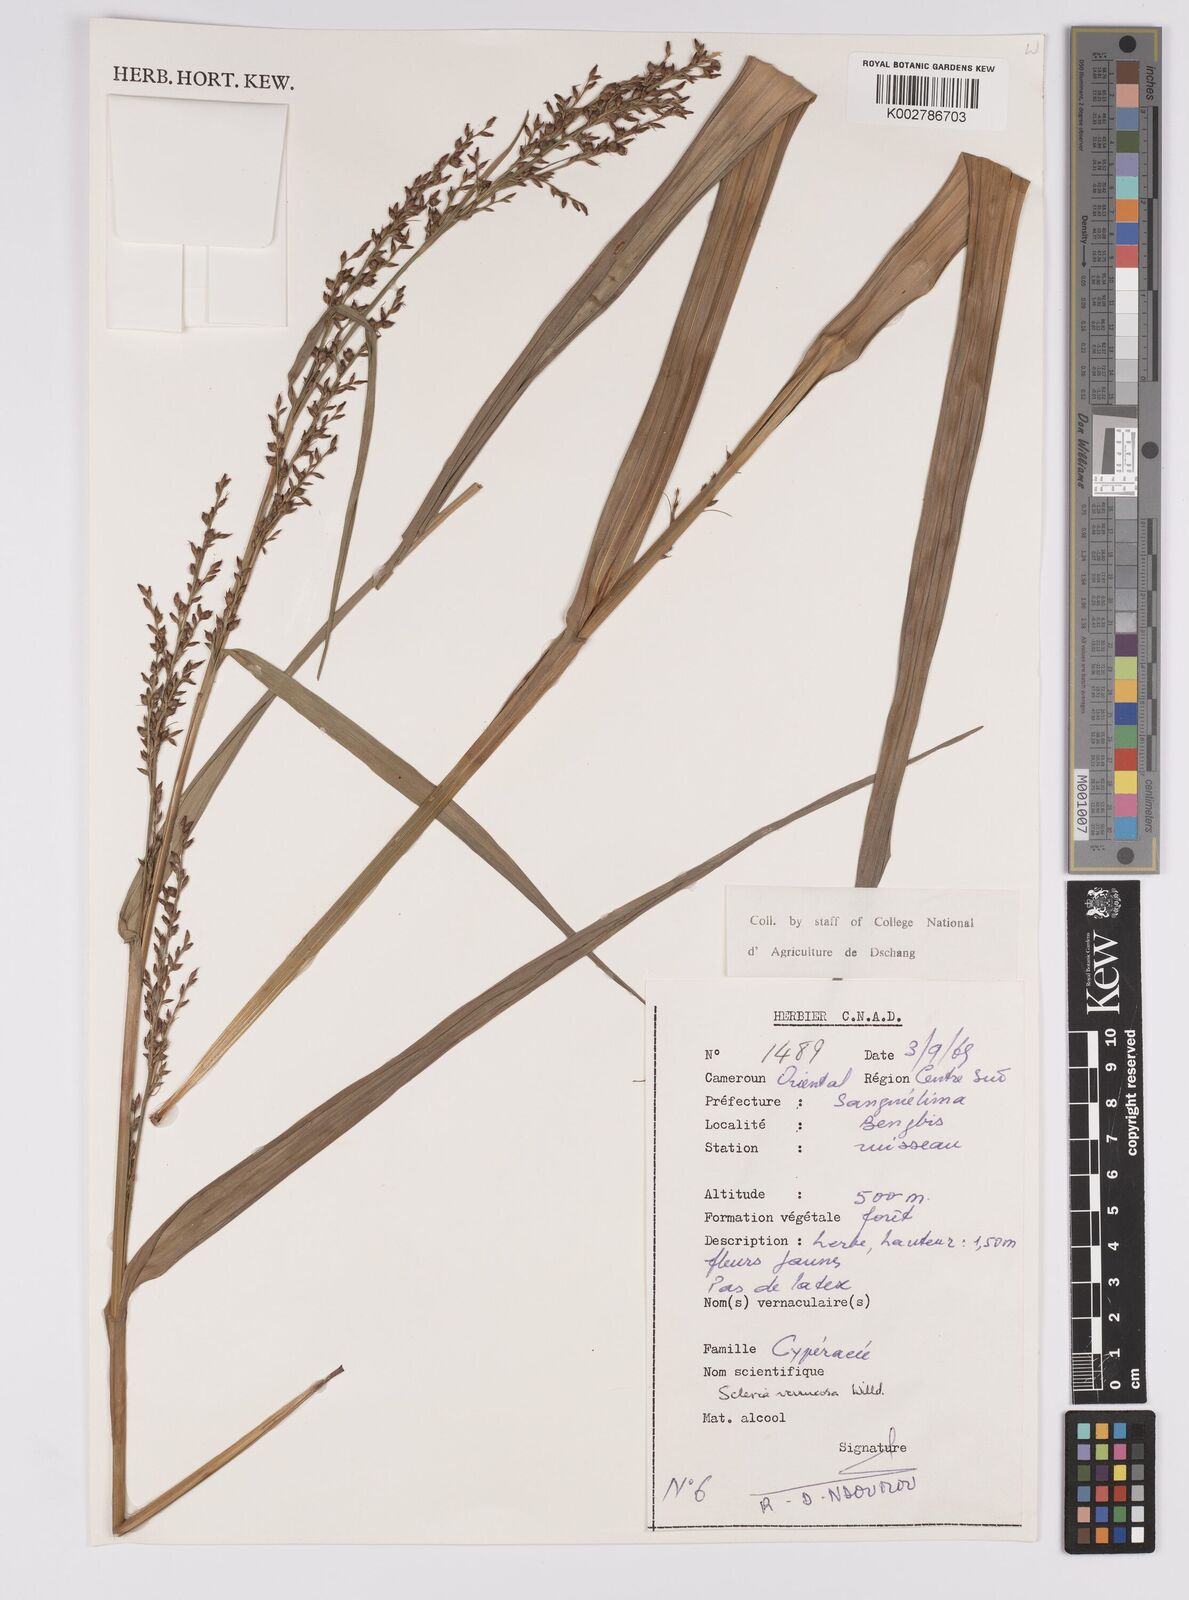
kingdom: Plantae
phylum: Tracheophyta
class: Liliopsida
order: Poales
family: Cyperaceae
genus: Scleria
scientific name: Scleria verrucosa
